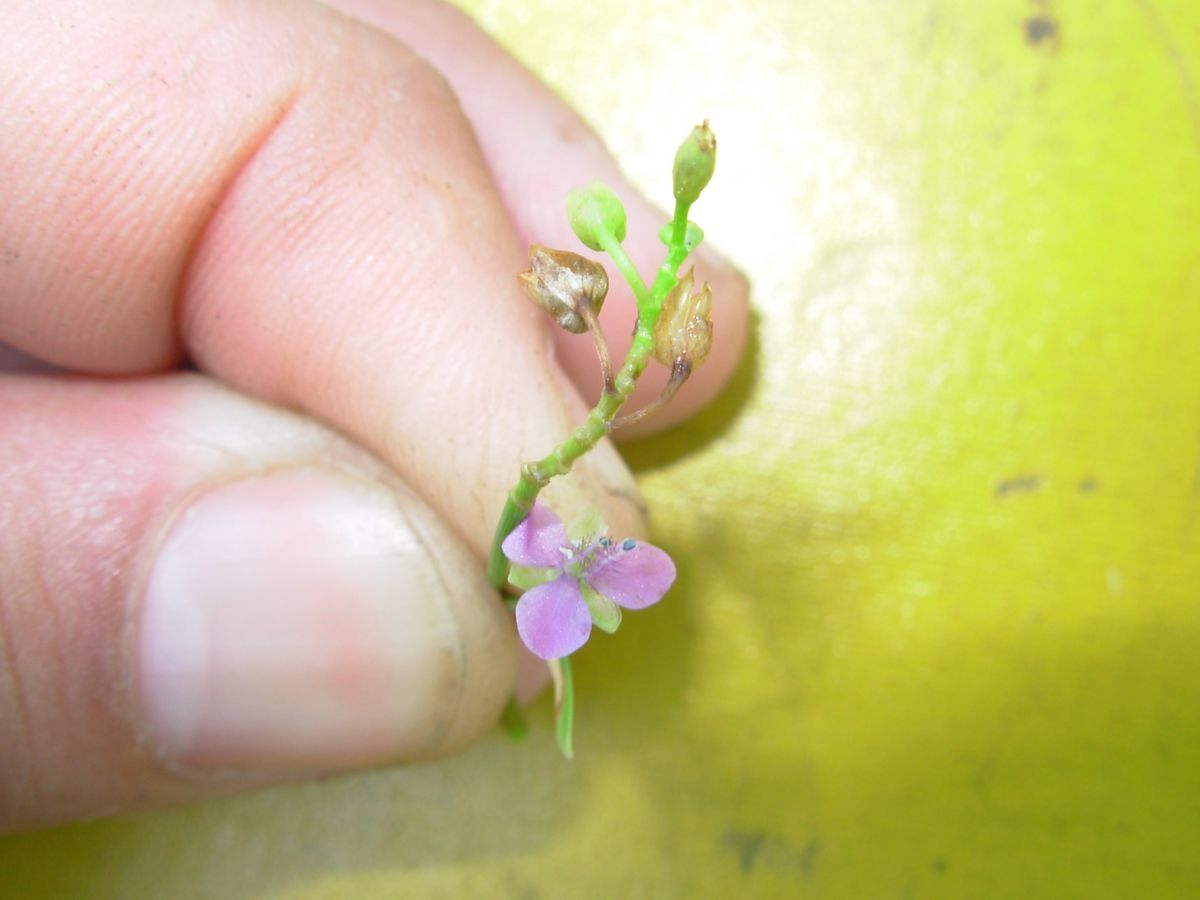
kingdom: Plantae
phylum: Tracheophyta
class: Liliopsida
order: Commelinales
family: Commelinaceae
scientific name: Commelinaceae
